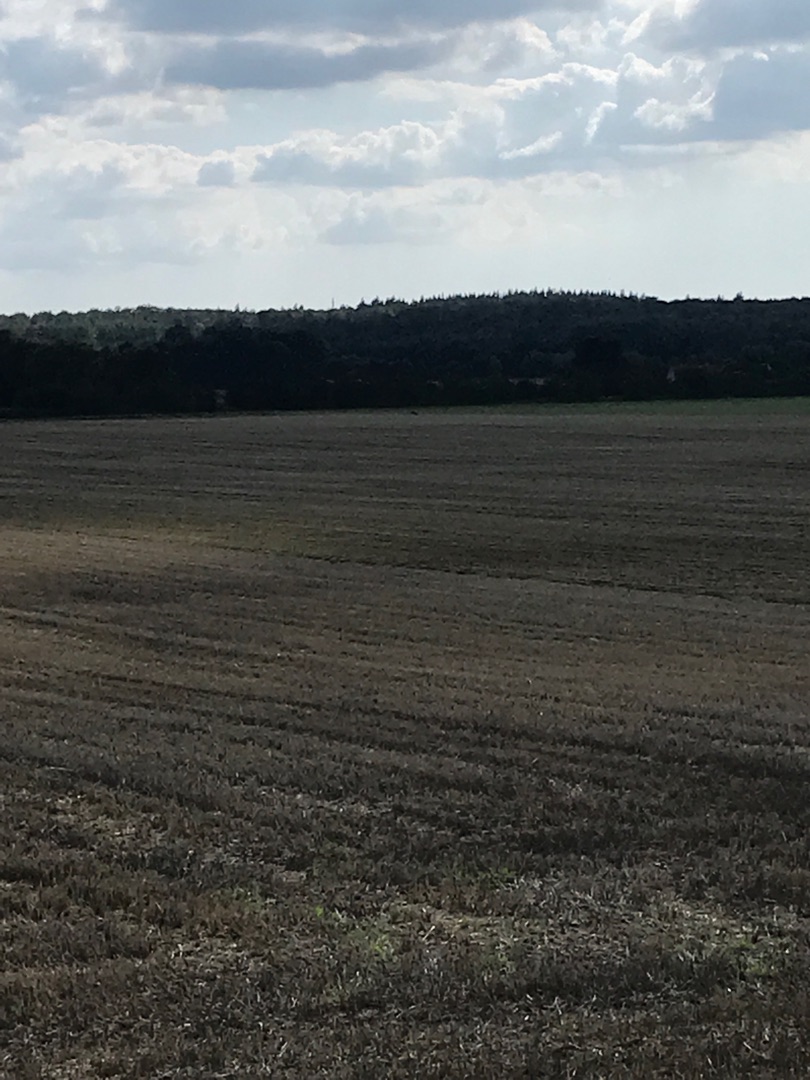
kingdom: Animalia
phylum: Chordata
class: Mammalia
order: Artiodactyla
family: Cervidae
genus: Capreolus
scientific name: Capreolus capreolus
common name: Rådyr
